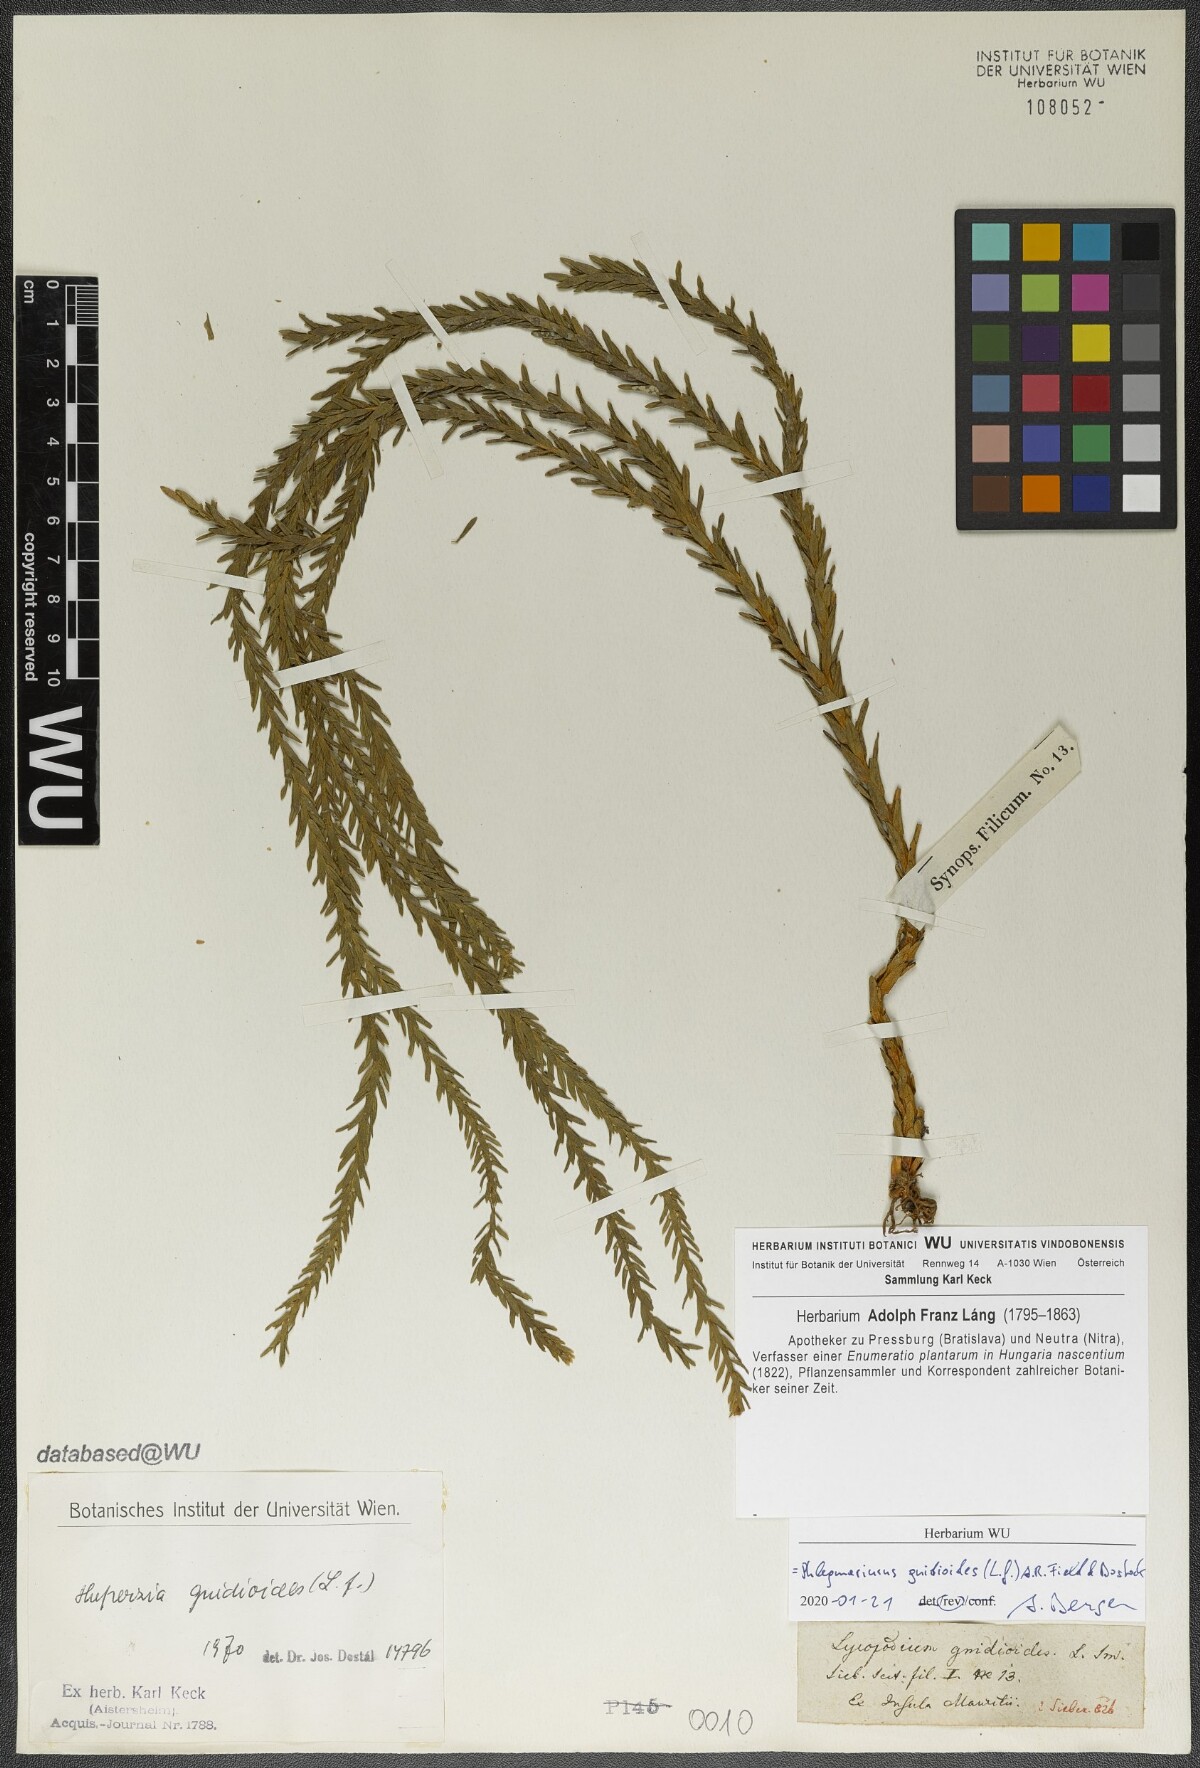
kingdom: Plantae
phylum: Tracheophyta
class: Lycopodiopsida
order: Lycopodiales
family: Lycopodiaceae
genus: Phlegmariurus
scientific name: Phlegmariurus gnidioides
